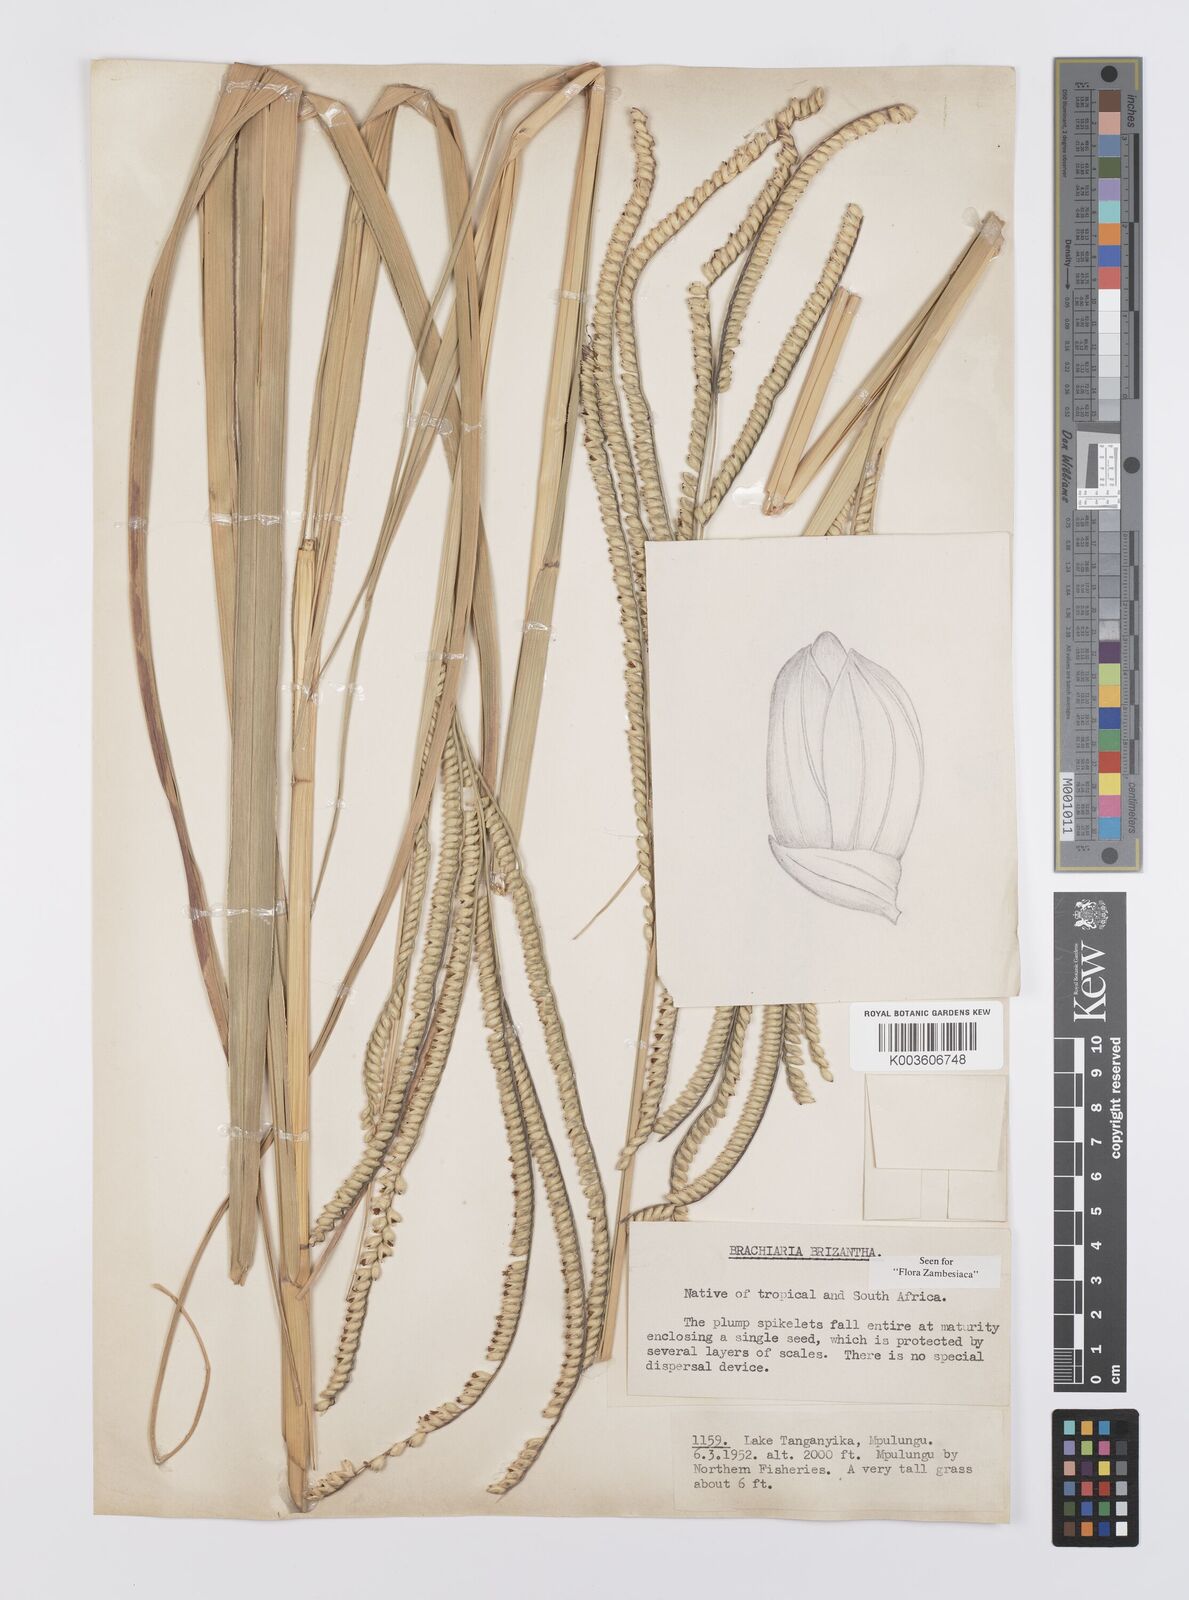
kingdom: Plantae
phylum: Tracheophyta
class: Liliopsida
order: Poales
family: Poaceae
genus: Urochloa
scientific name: Urochloa brizantha
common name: Palisade signalgrass
